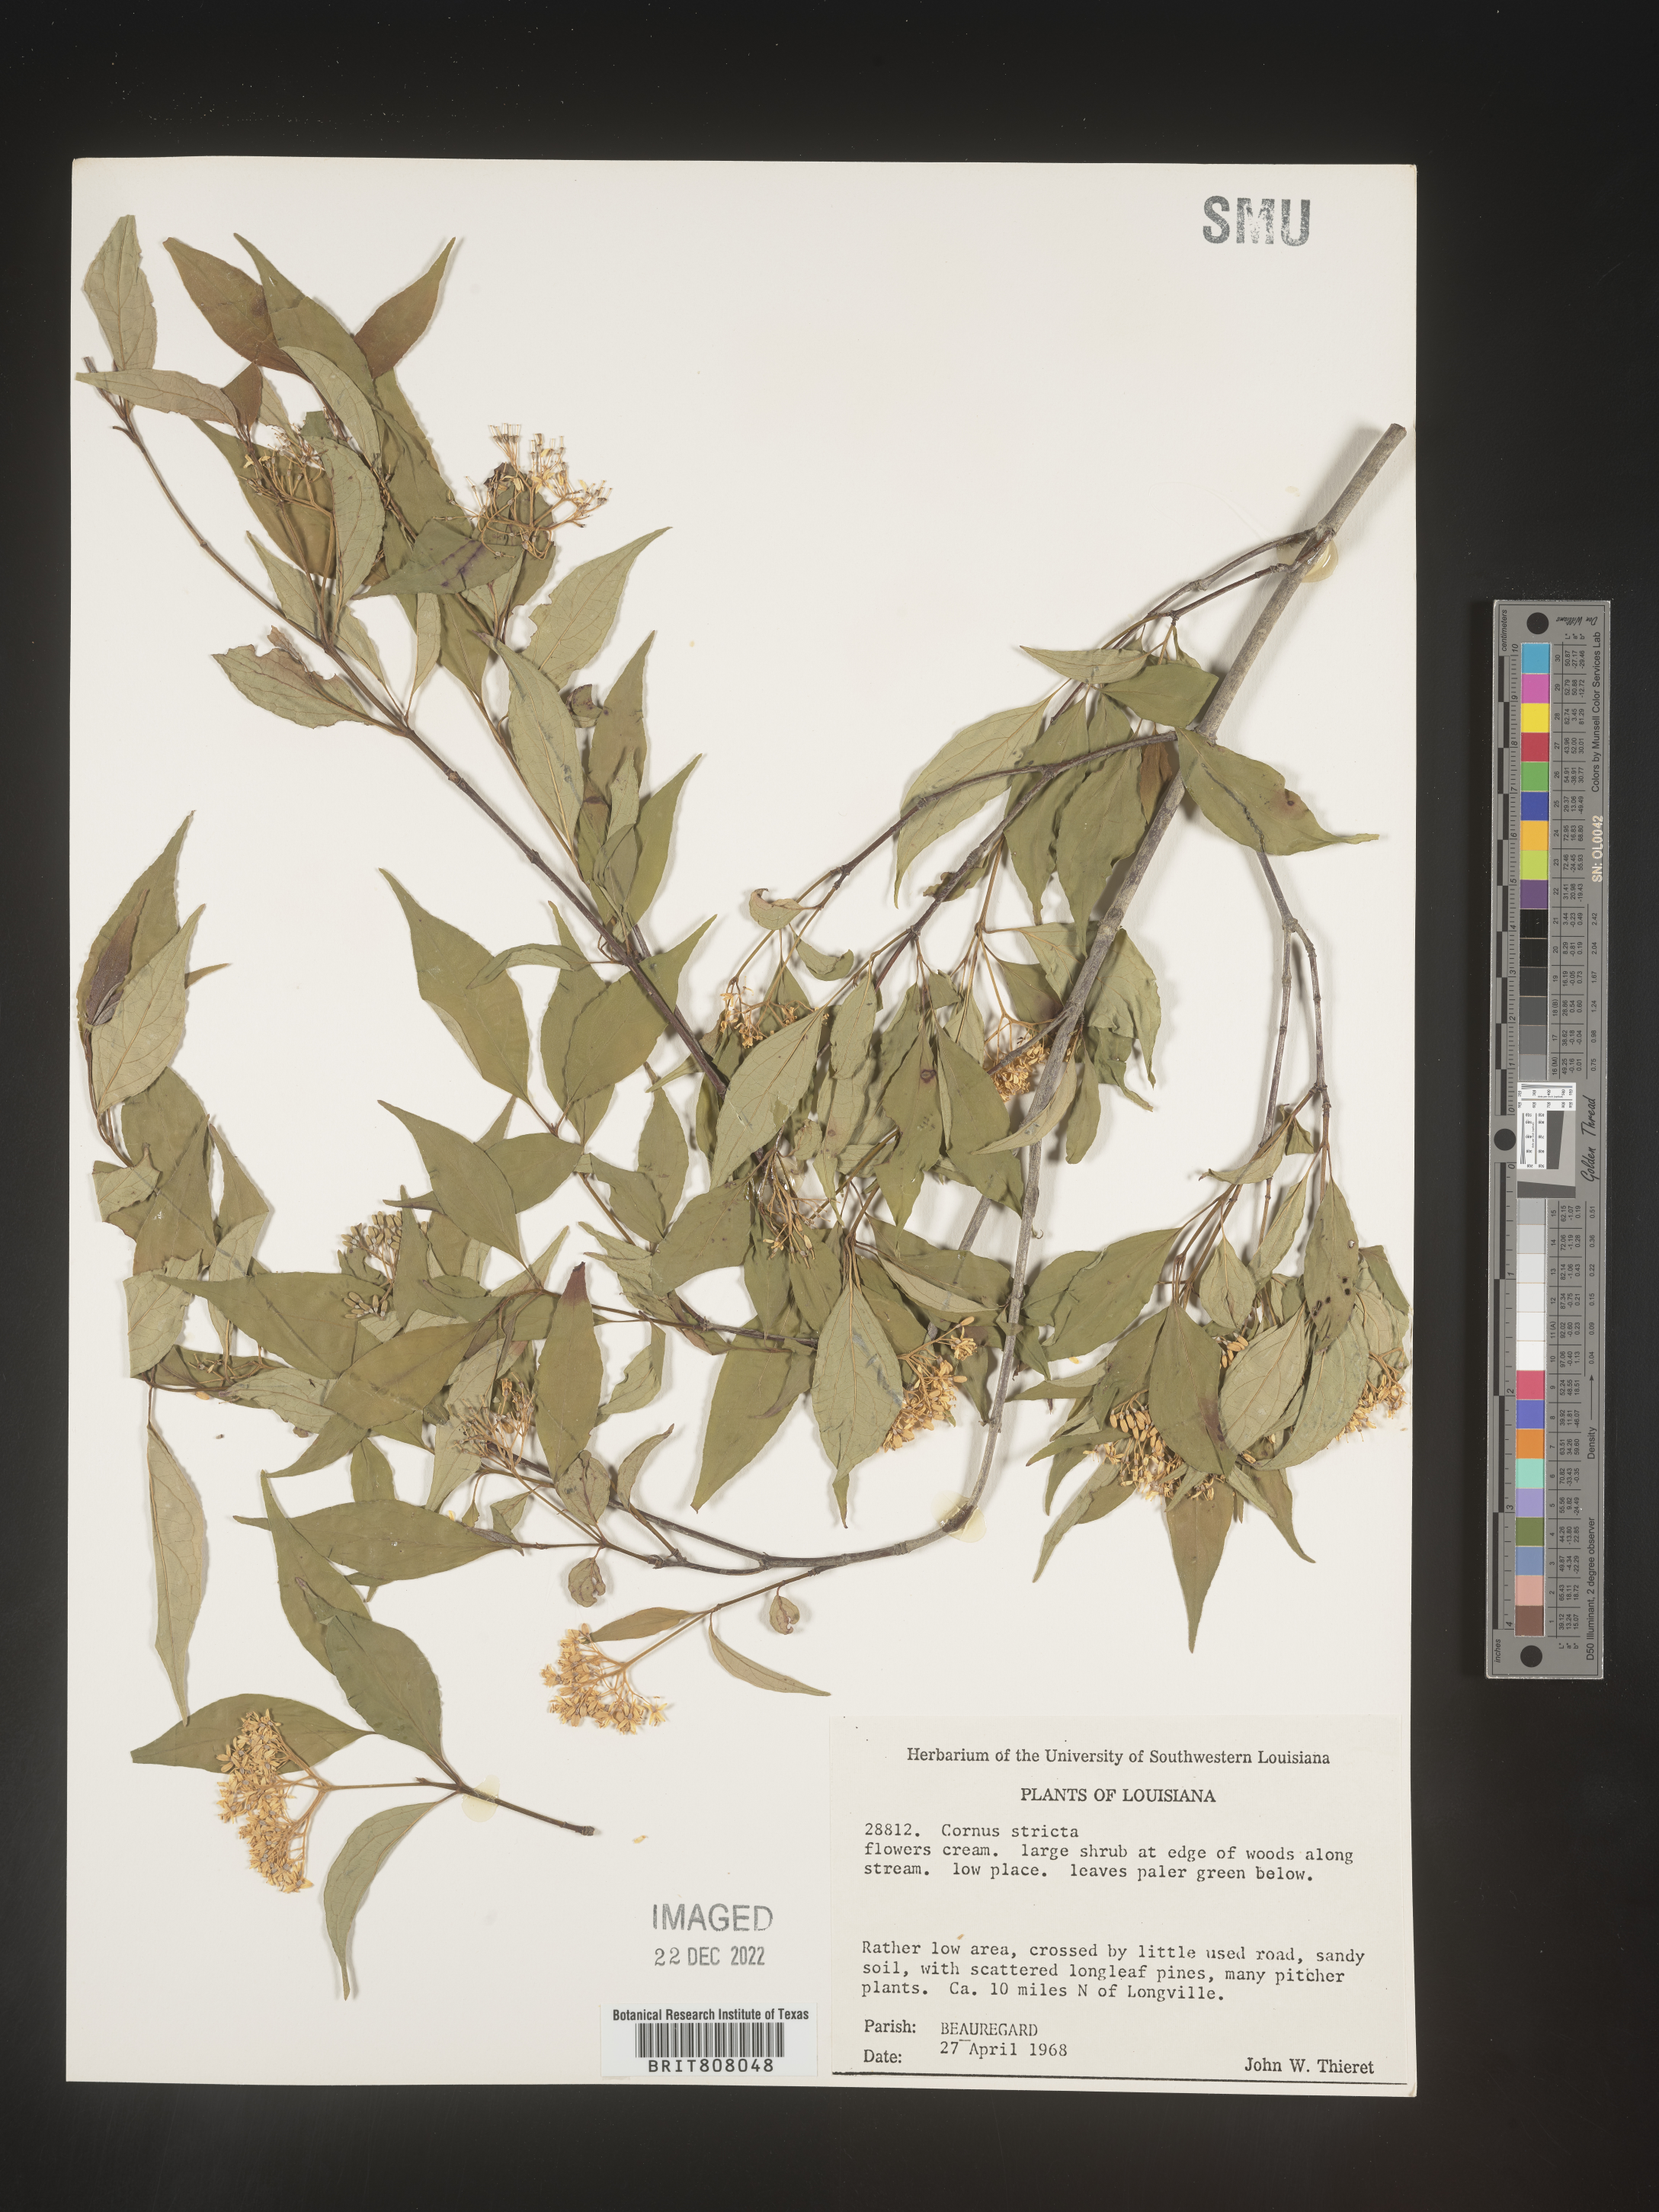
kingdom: Plantae
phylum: Tracheophyta
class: Magnoliopsida
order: Cornales
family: Cornaceae
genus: Cornus
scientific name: Cornus foemina
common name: Swamp dogwood
